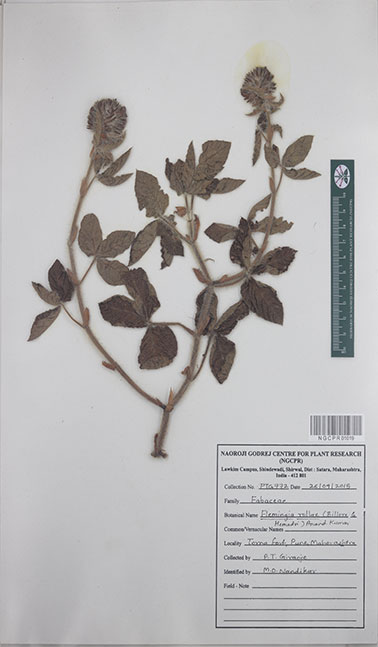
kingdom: Plantae
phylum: Tracheophyta
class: Magnoliopsida
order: Fabales
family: Fabaceae
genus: Flemingia
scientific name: Flemingia rollae
